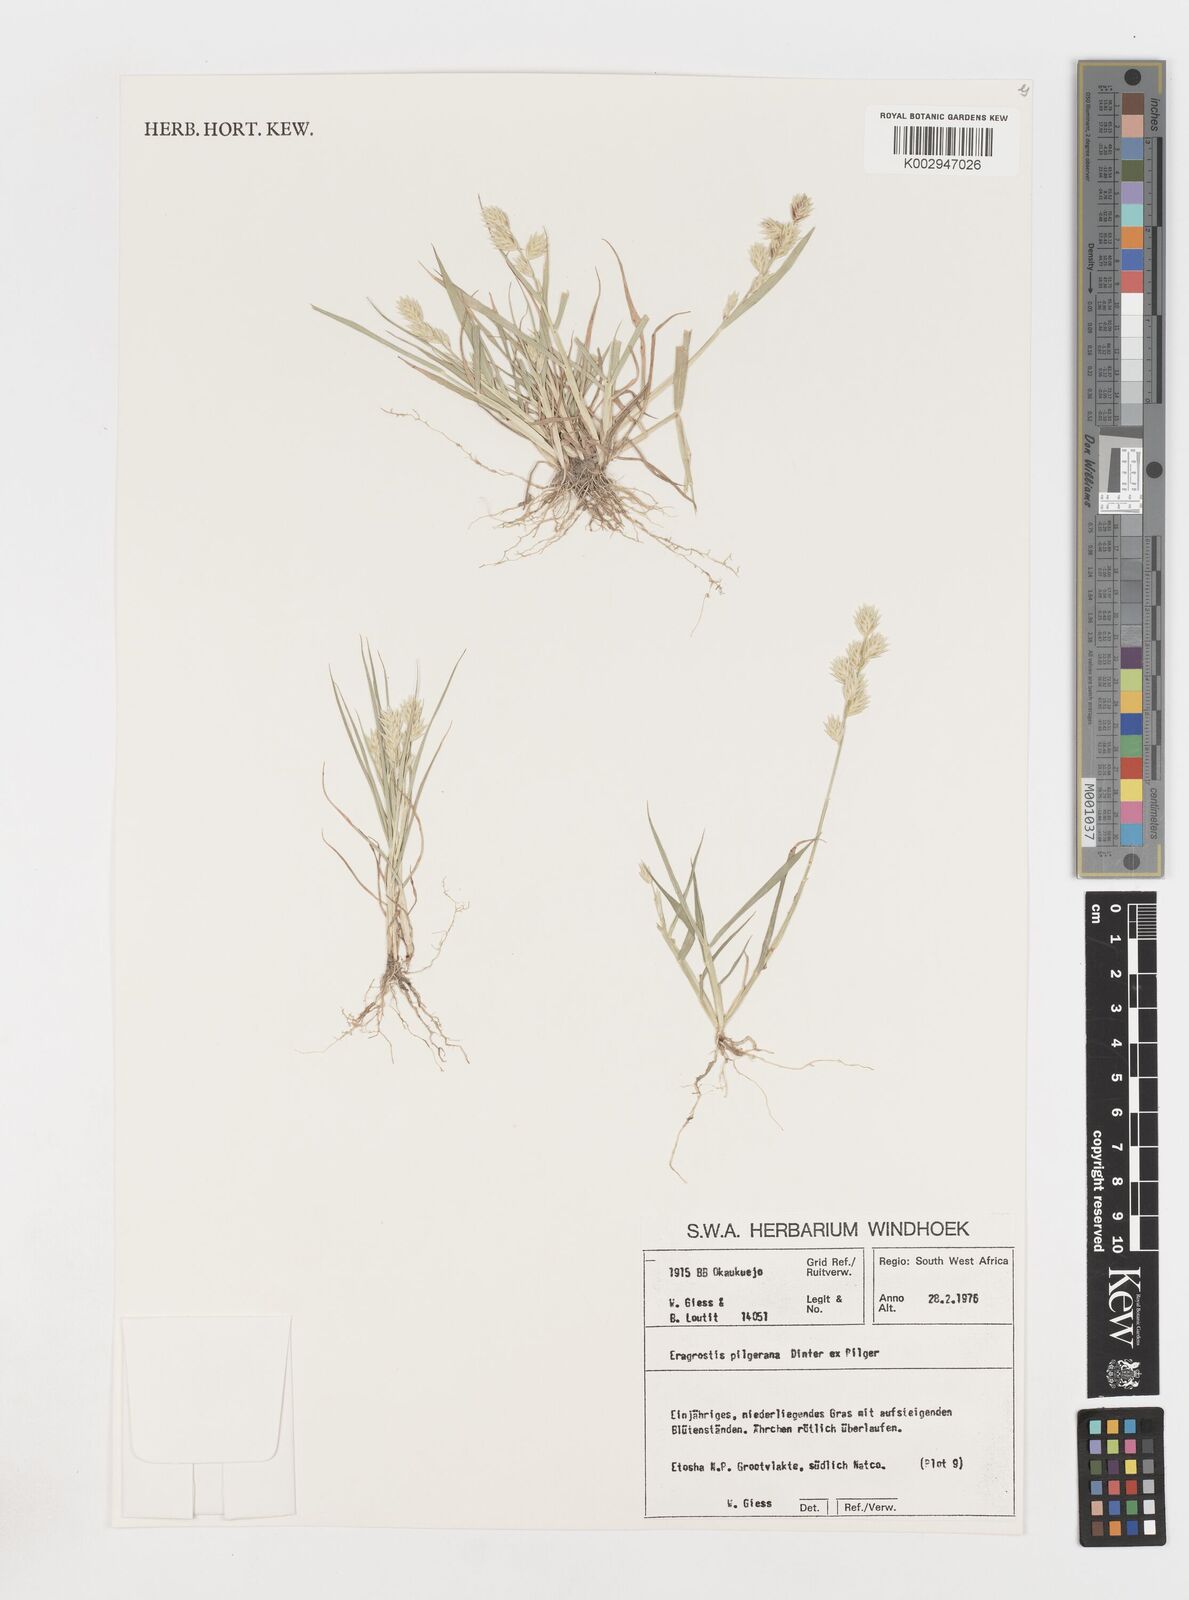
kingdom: Plantae
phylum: Tracheophyta
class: Liliopsida
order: Poales
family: Poaceae
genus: Eragrostis
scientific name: Eragrostis pilgeriana
